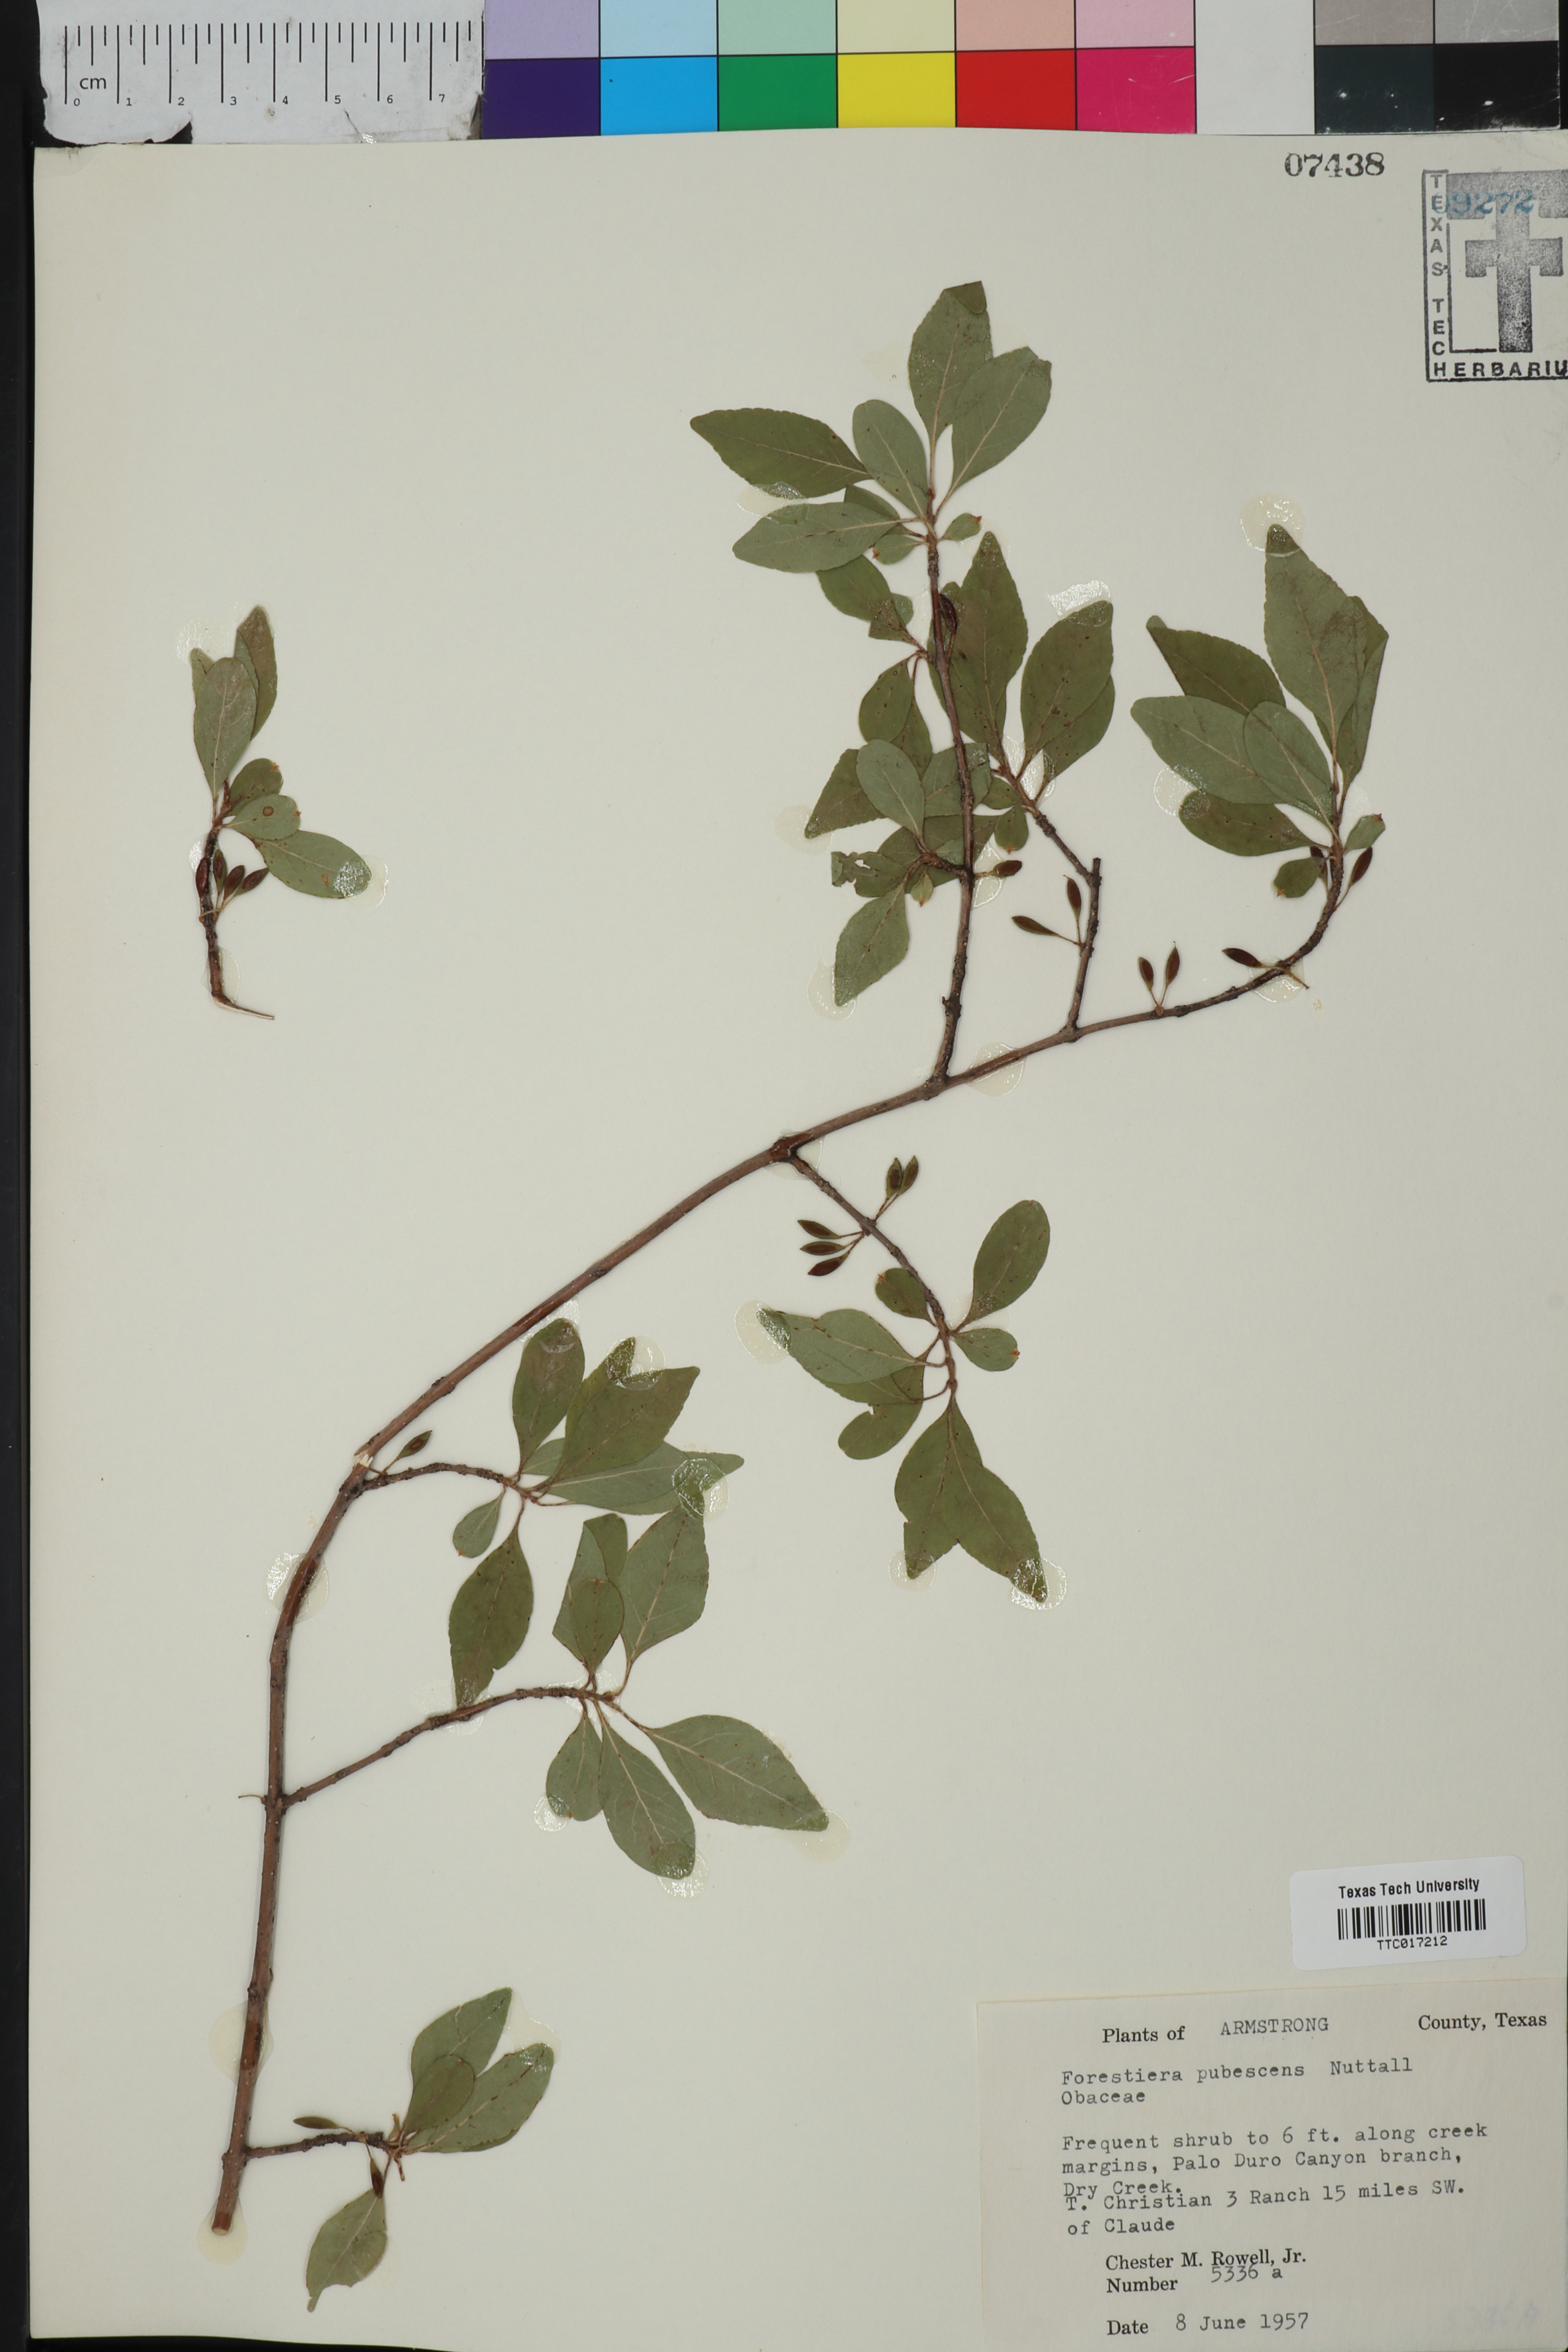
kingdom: Plantae
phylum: Tracheophyta
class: Magnoliopsida
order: Lamiales
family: Oleaceae
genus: Forestiera
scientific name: Forestiera pubescens
